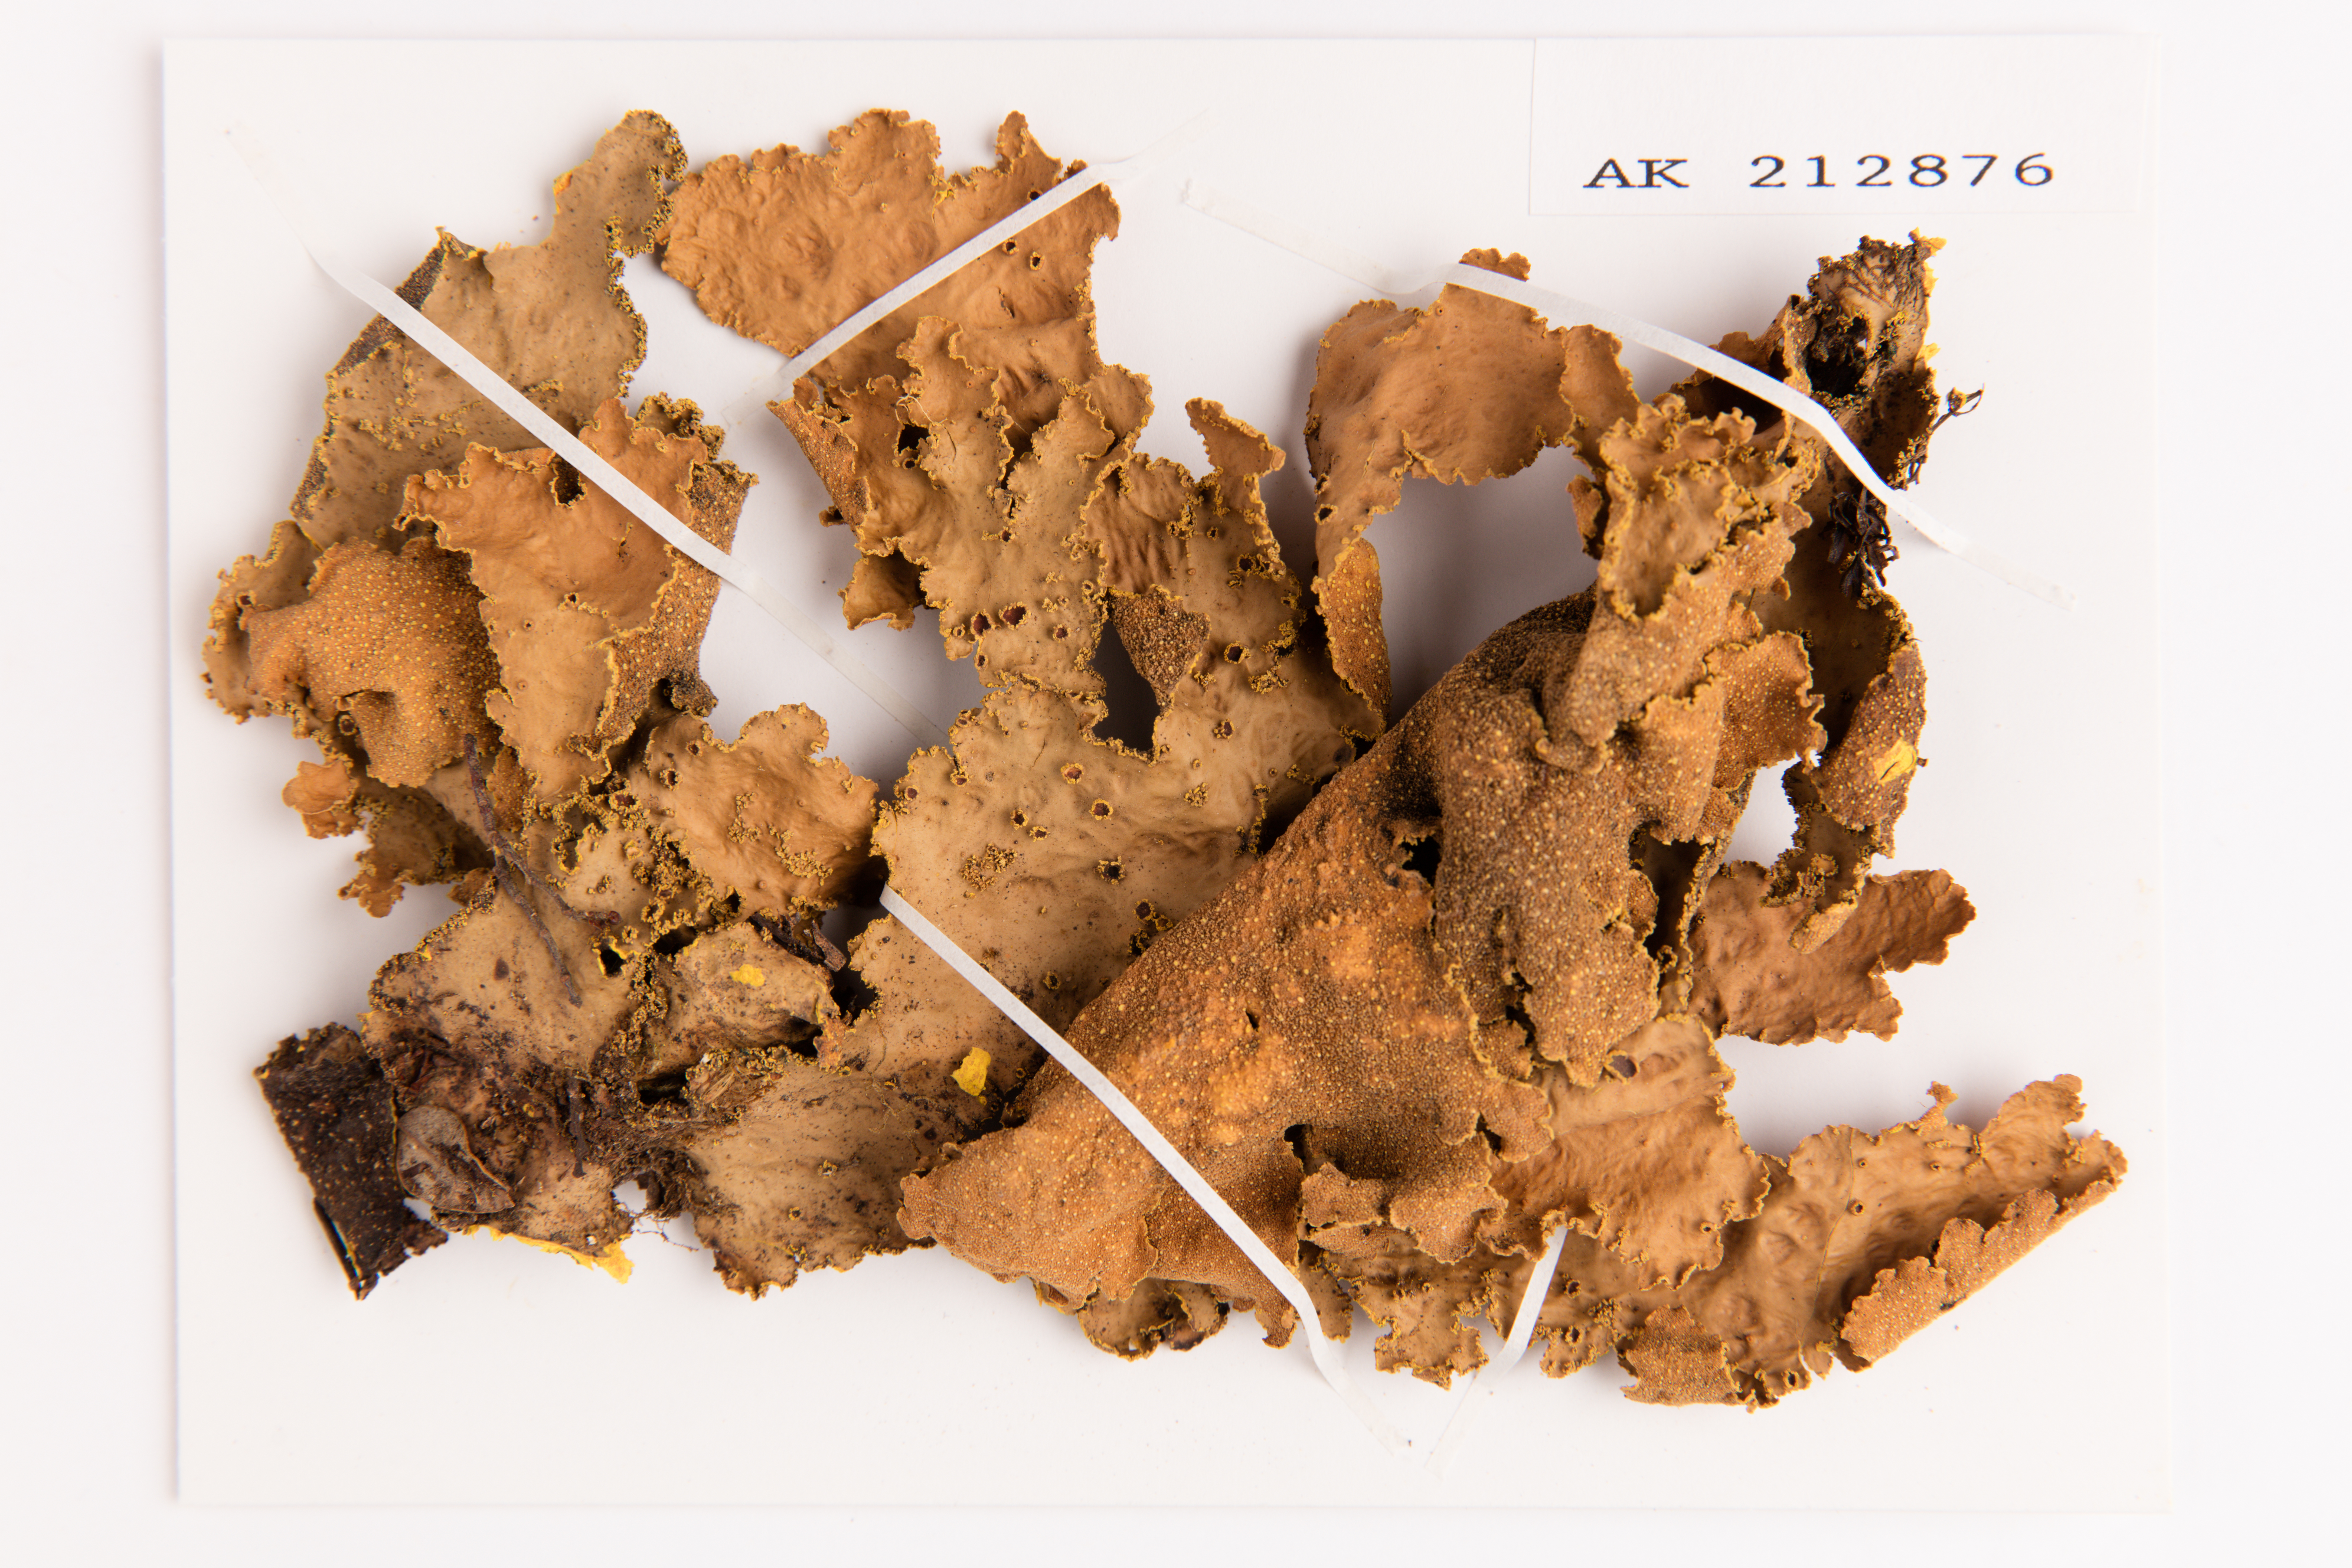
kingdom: Fungi
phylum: Ascomycota
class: Lecanoromycetes
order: Peltigerales
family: Lobariaceae
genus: Yarrumia
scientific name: Yarrumia colensoi
